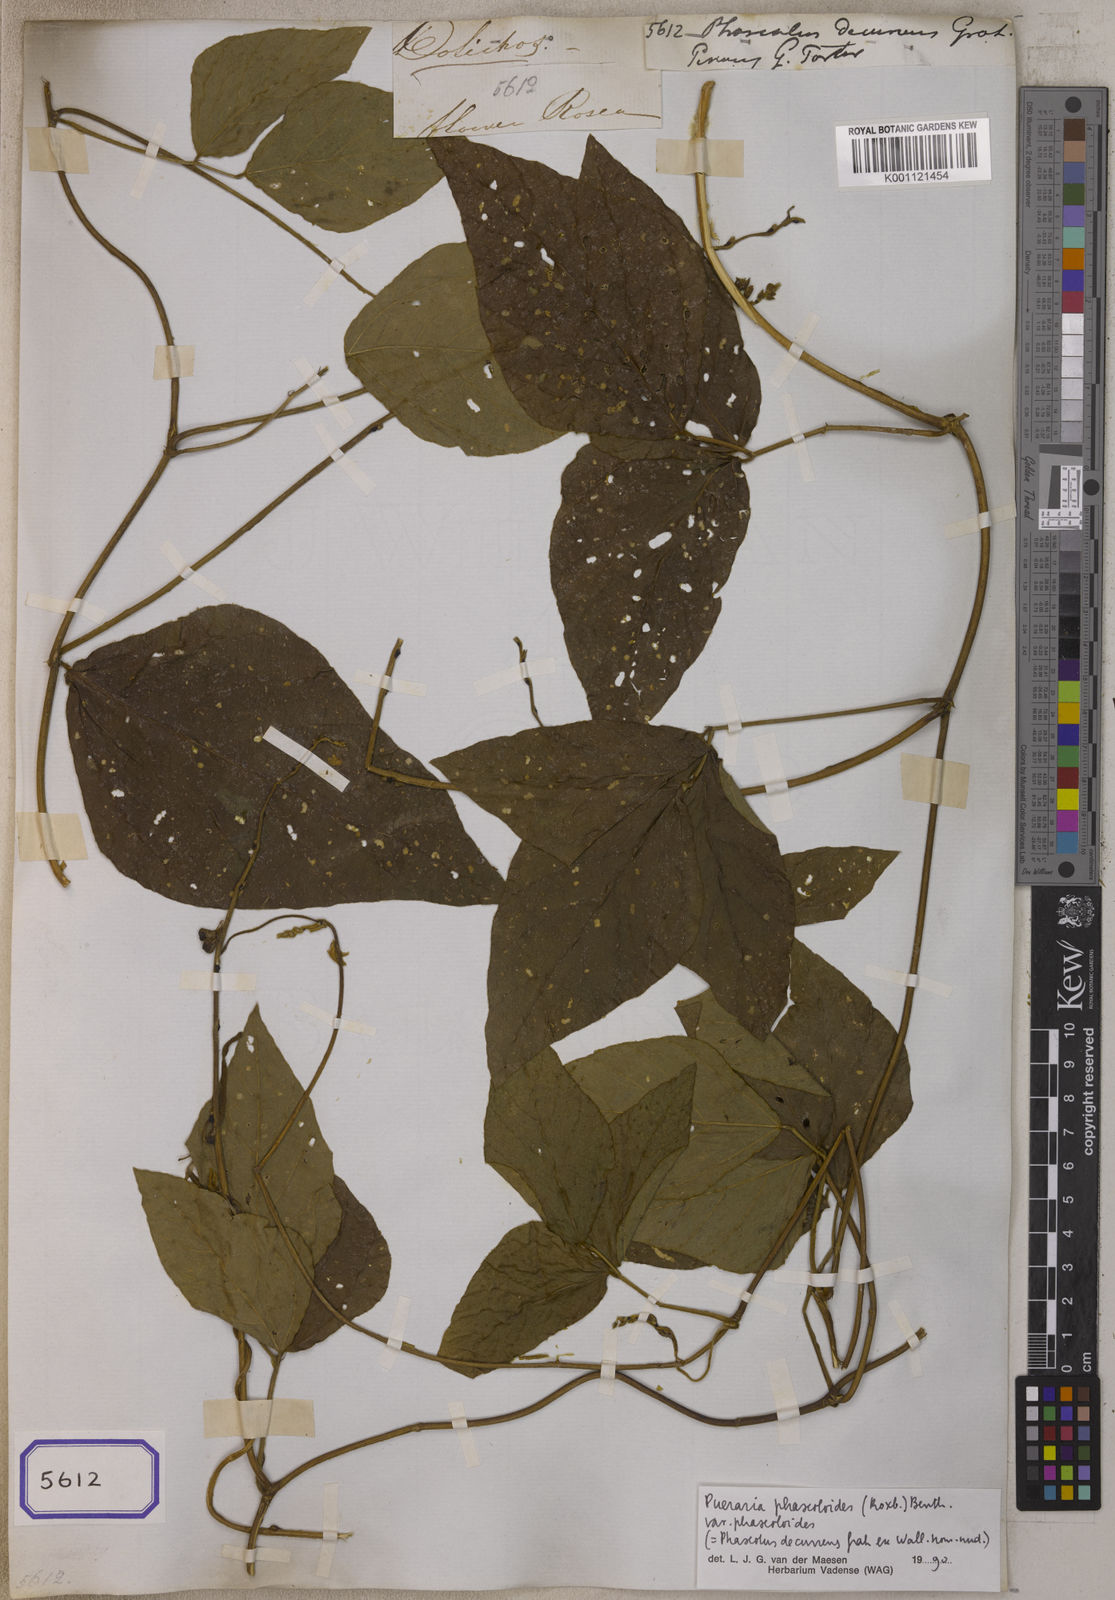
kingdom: Plantae
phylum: Tracheophyta
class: Magnoliopsida
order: Fabales
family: Fabaceae
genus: Neustanthus
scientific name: Neustanthus phaseoloides
